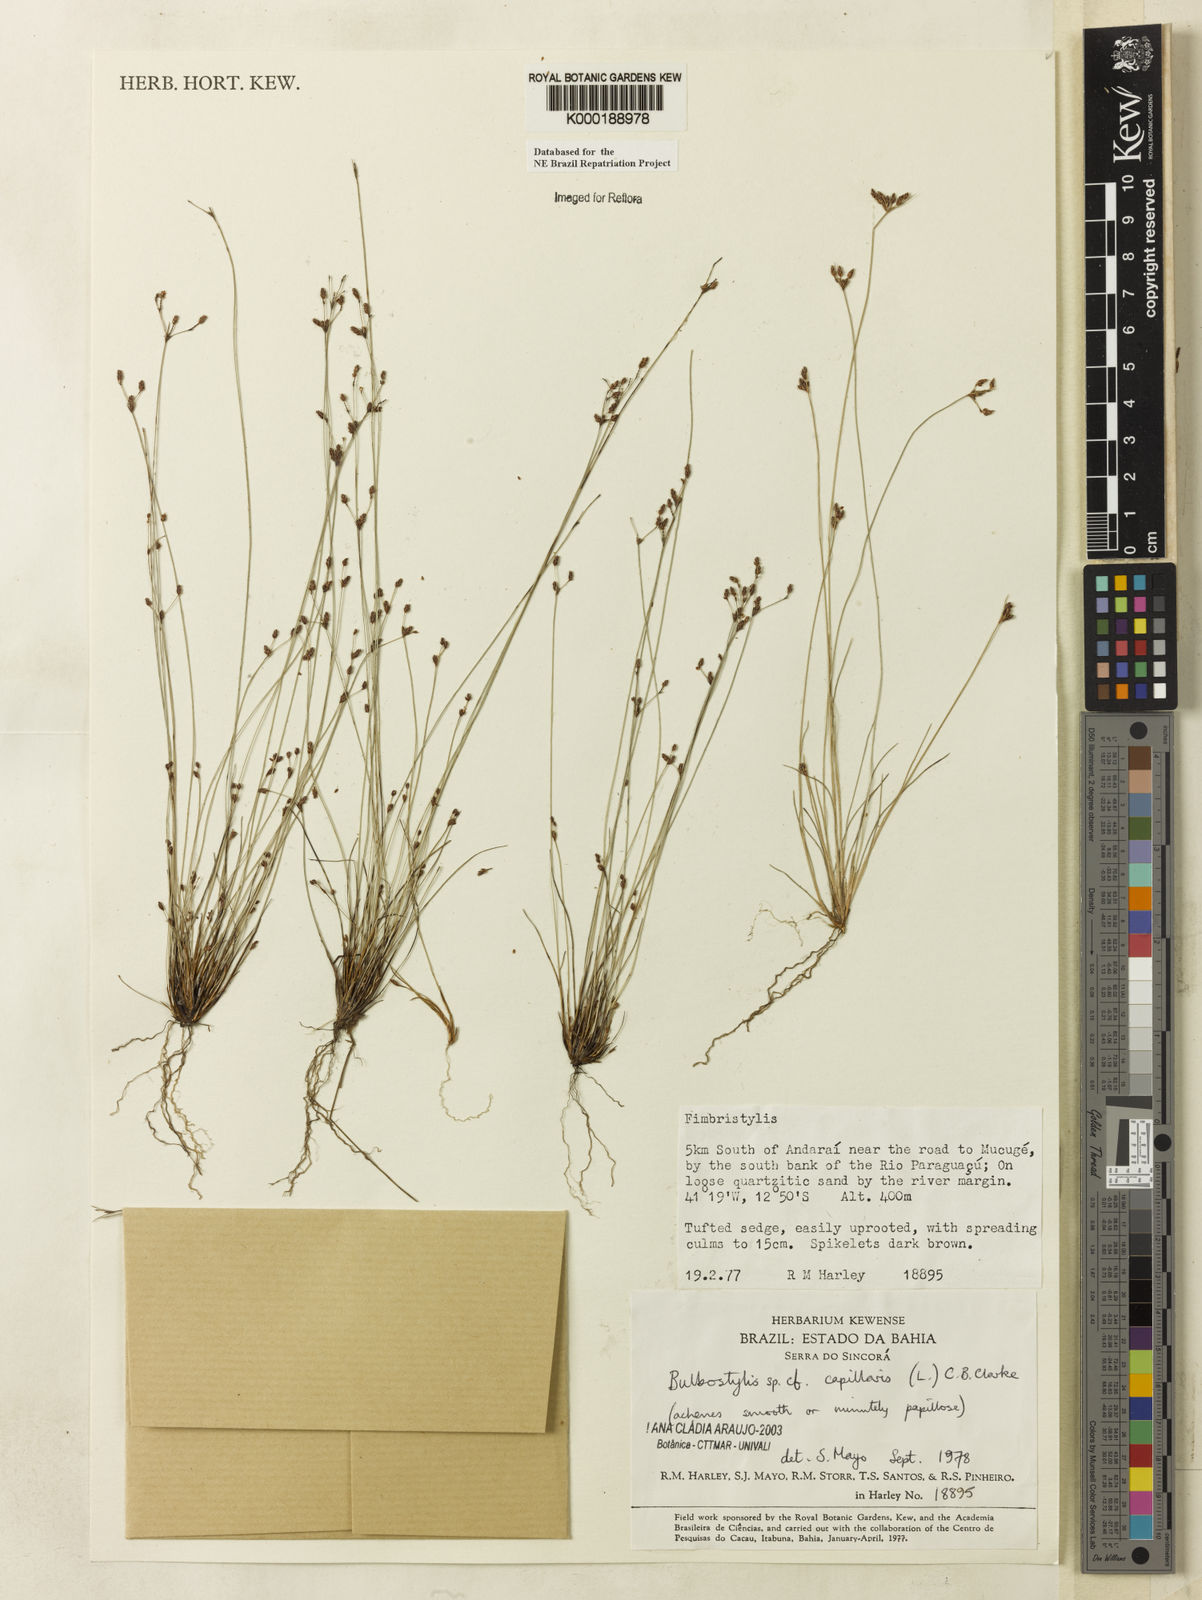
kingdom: Plantae
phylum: Tracheophyta
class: Liliopsida
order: Poales
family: Cyperaceae
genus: Bulbostylis
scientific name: Bulbostylis capillaris
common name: Densetuft hairsedge
